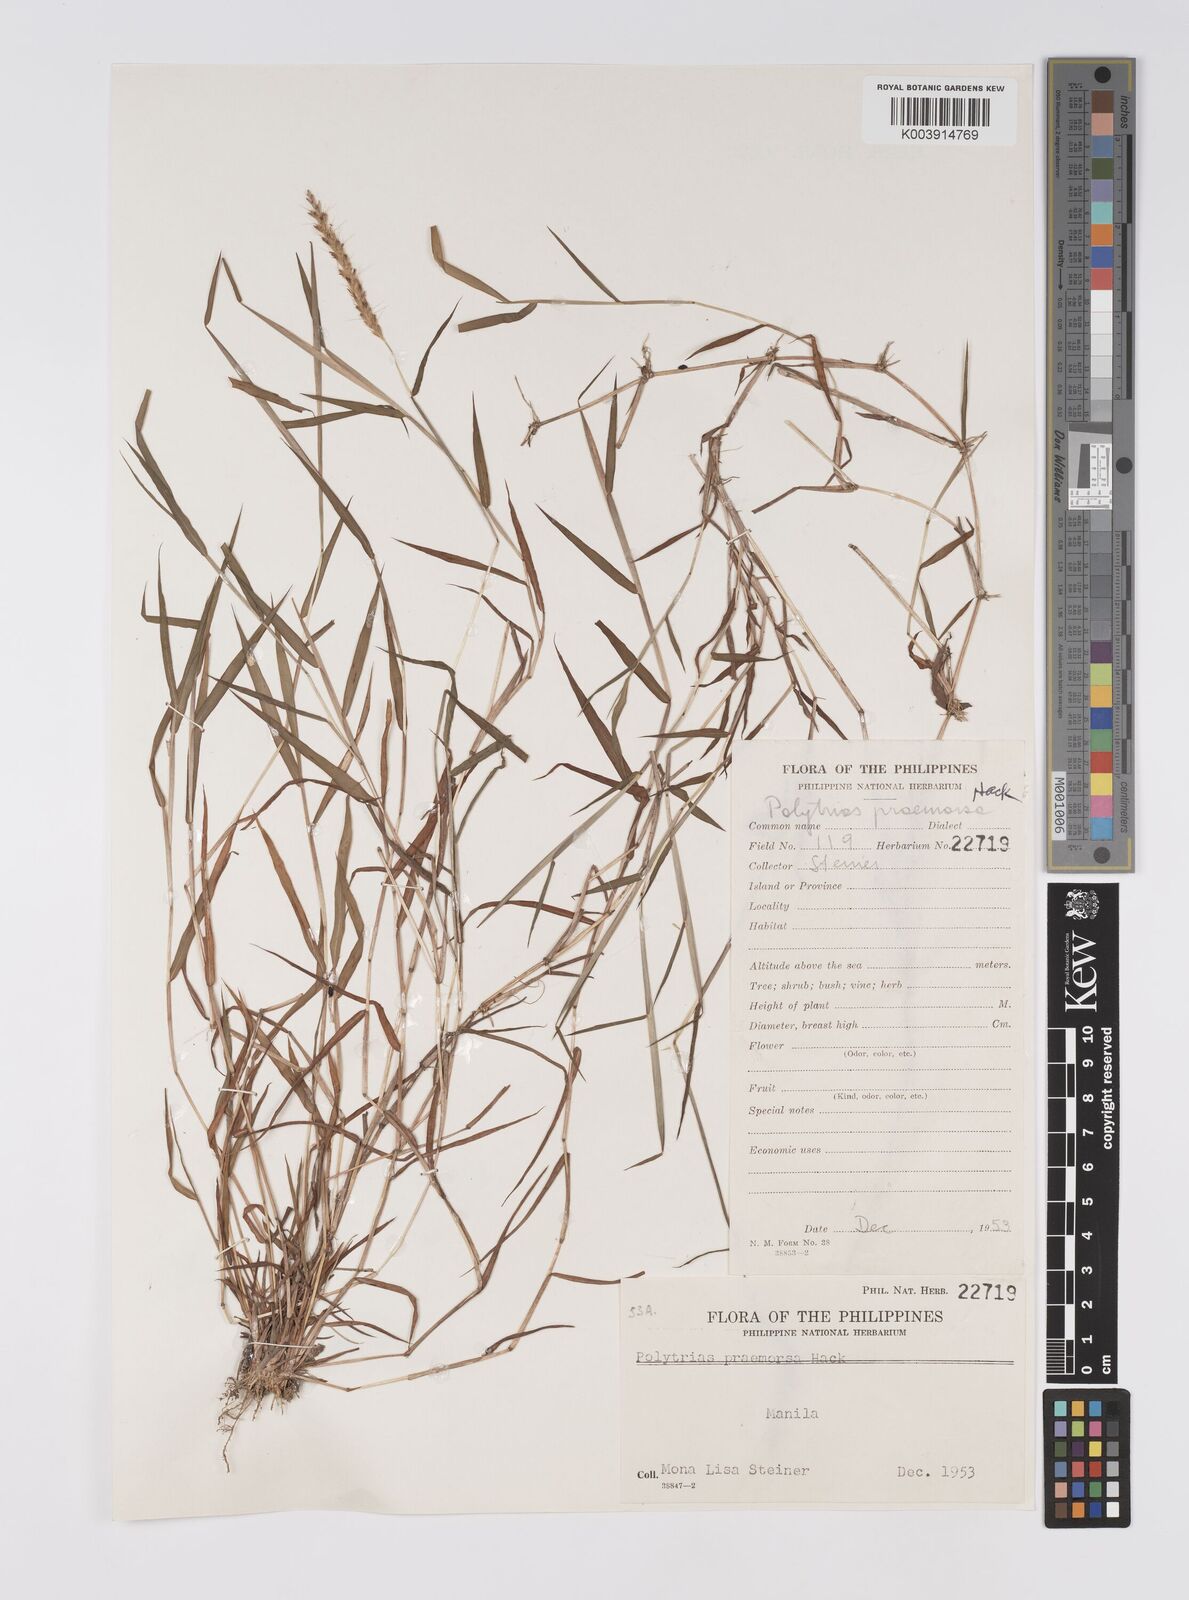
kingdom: Plantae
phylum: Tracheophyta
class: Liliopsida
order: Poales
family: Poaceae
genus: Polytrias
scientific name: Polytrias indica
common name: Indian murainagrass
